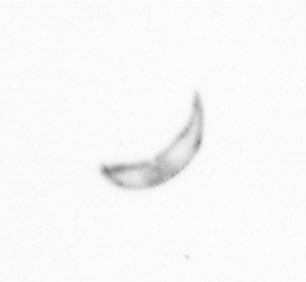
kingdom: Chromista
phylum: Ochrophyta
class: Bacillariophyceae
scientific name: Bacillariophyceae
